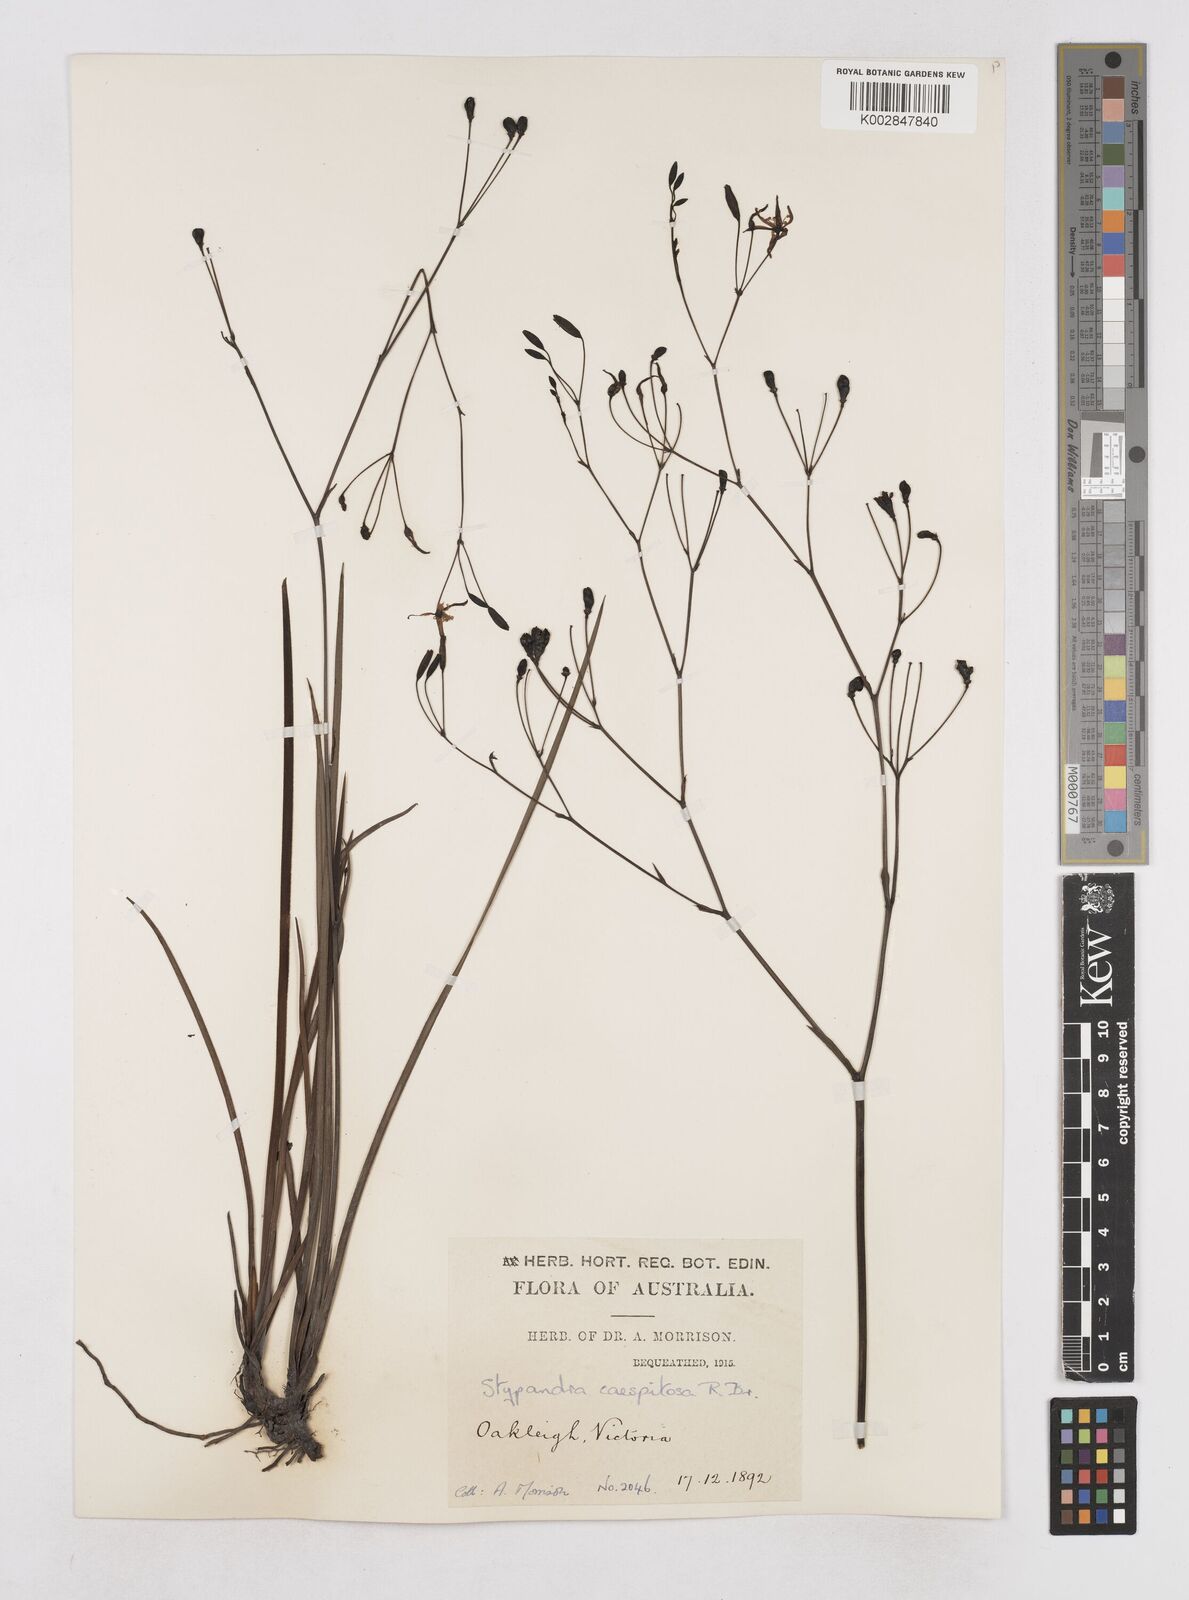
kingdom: Plantae
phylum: Tracheophyta
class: Liliopsida
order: Asparagales
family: Asphodelaceae
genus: Thelionema
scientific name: Thelionema caespitosum
